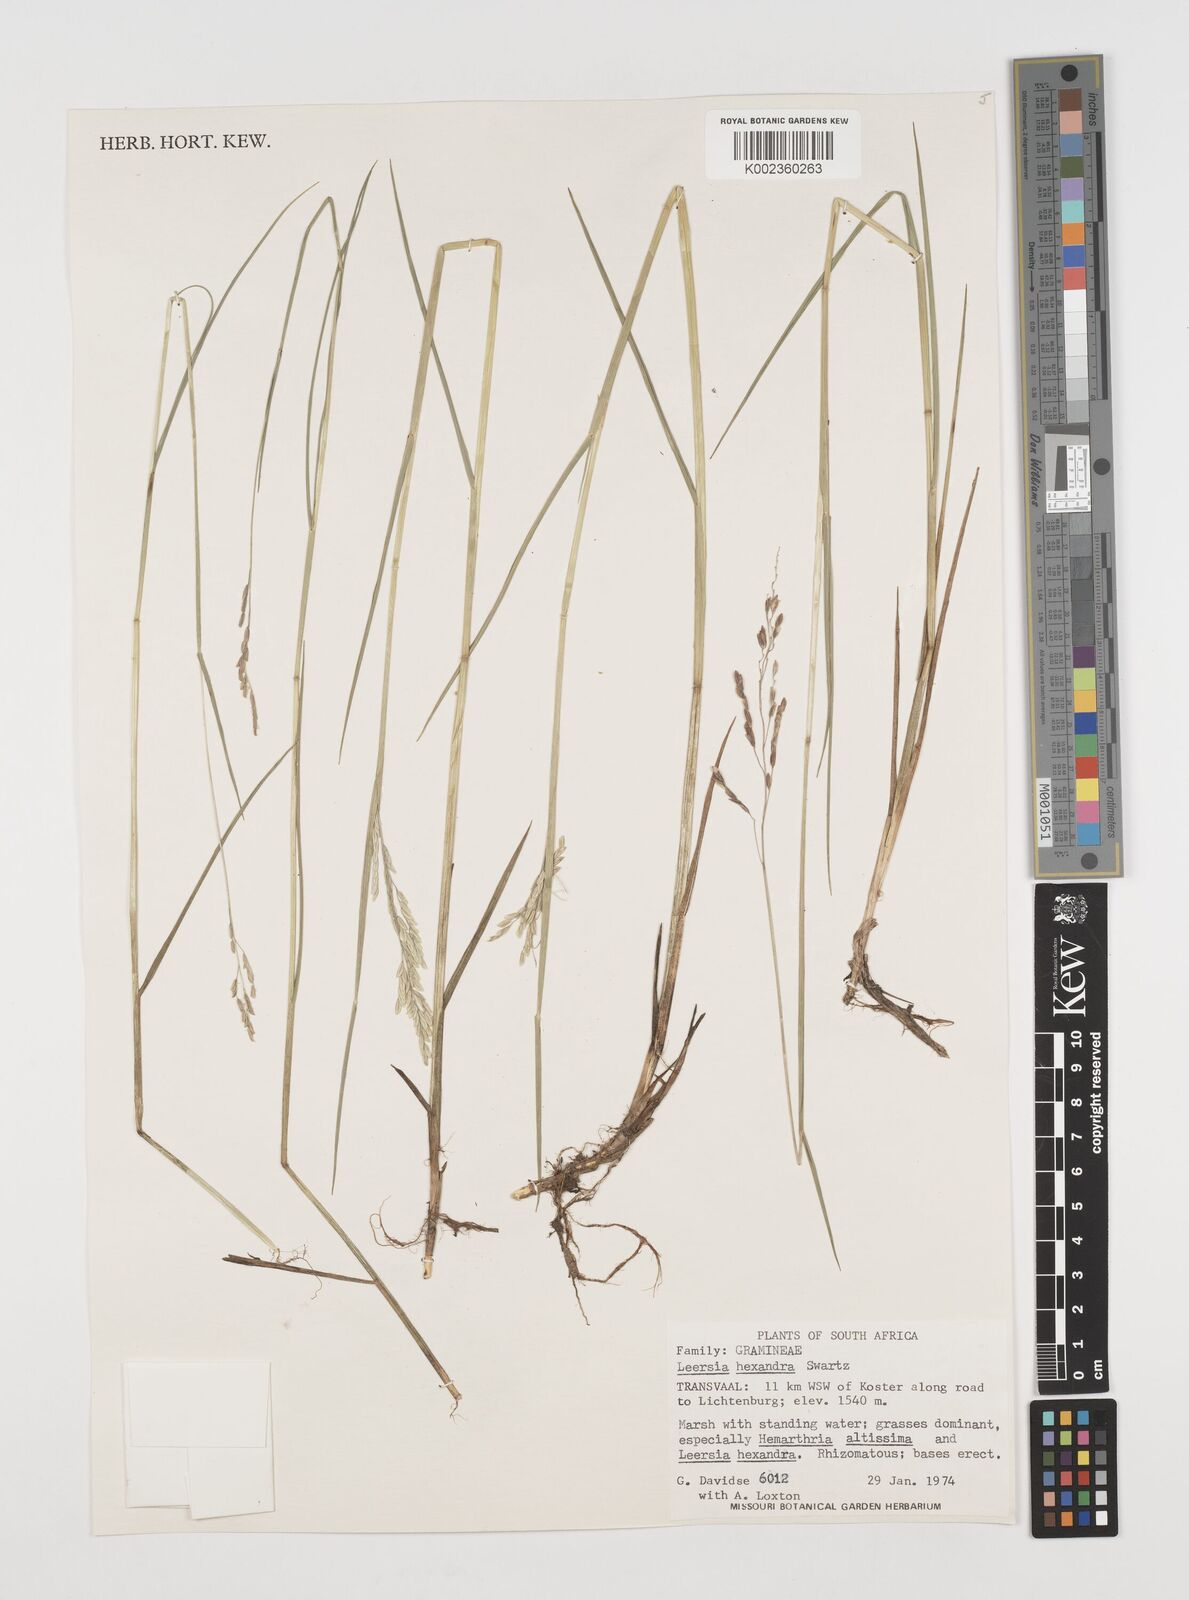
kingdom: Plantae
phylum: Tracheophyta
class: Liliopsida
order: Poales
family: Poaceae
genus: Leersia
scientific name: Leersia hexandra
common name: Southern cut grass
